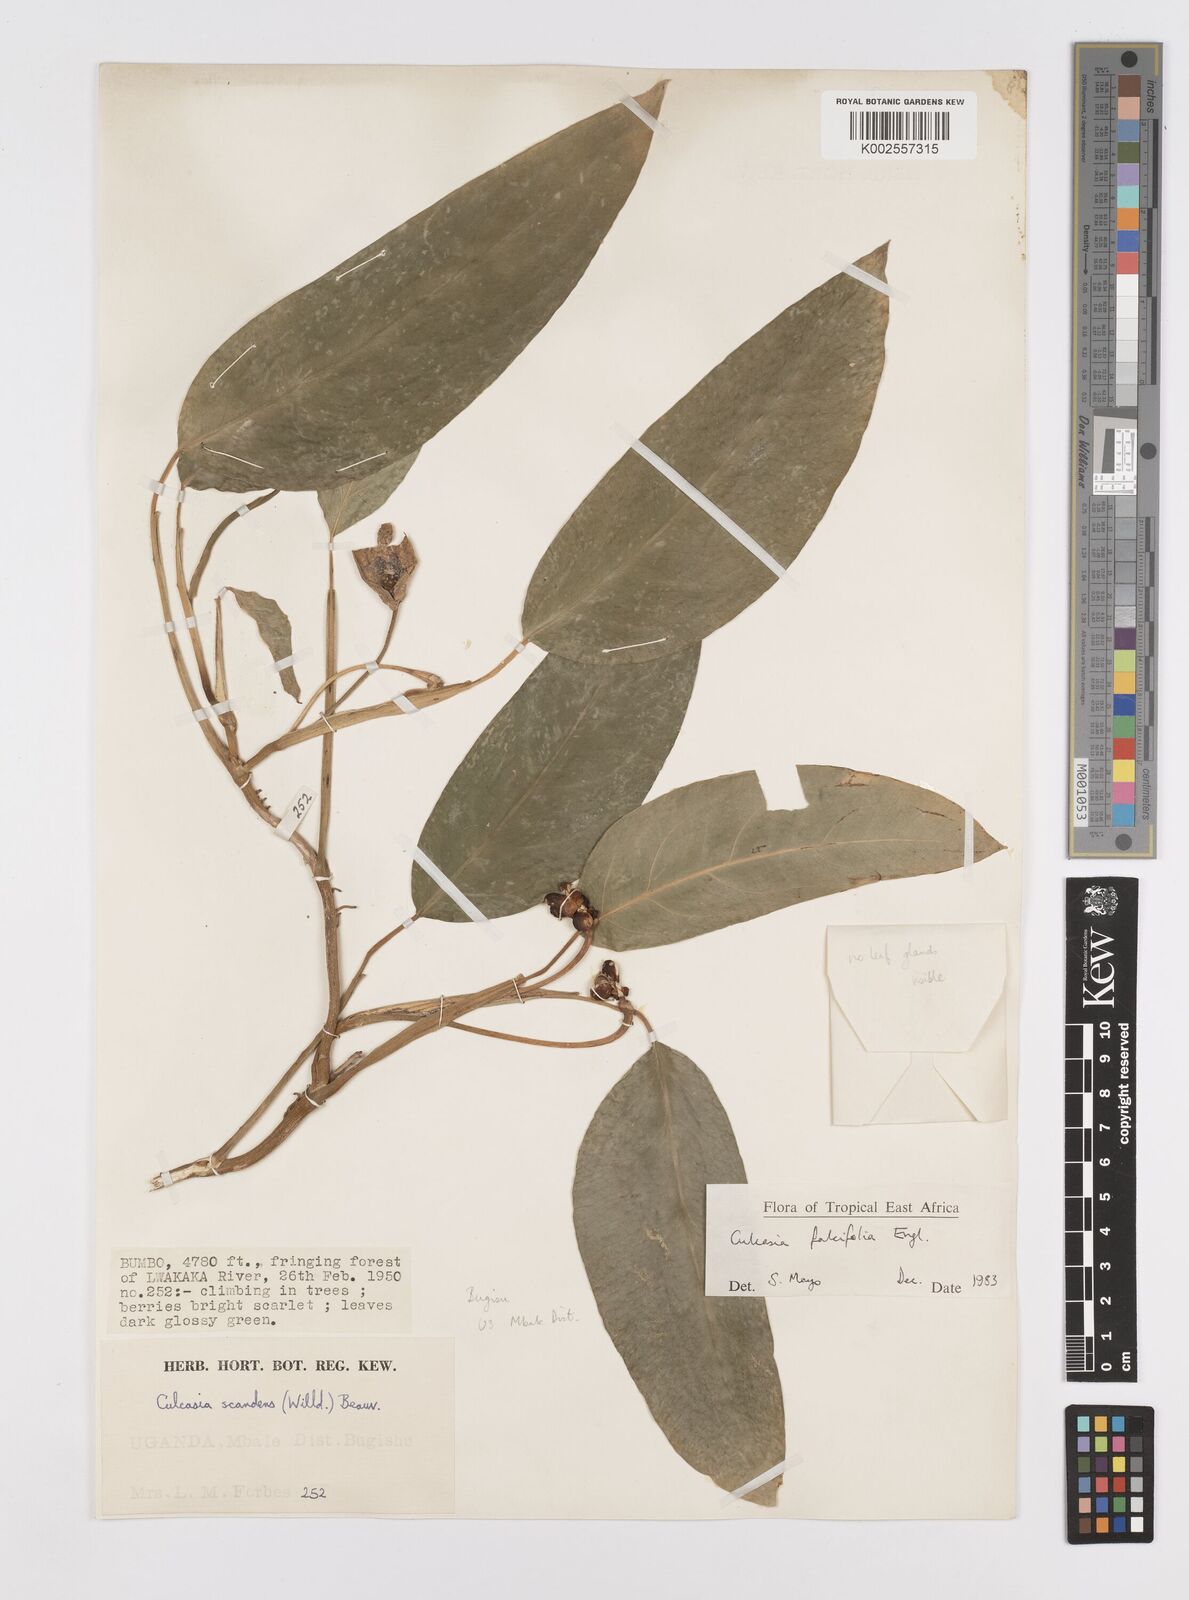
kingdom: Plantae
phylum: Tracheophyta
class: Liliopsida
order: Alismatales
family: Araceae
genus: Culcasia
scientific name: Culcasia falcifolia
